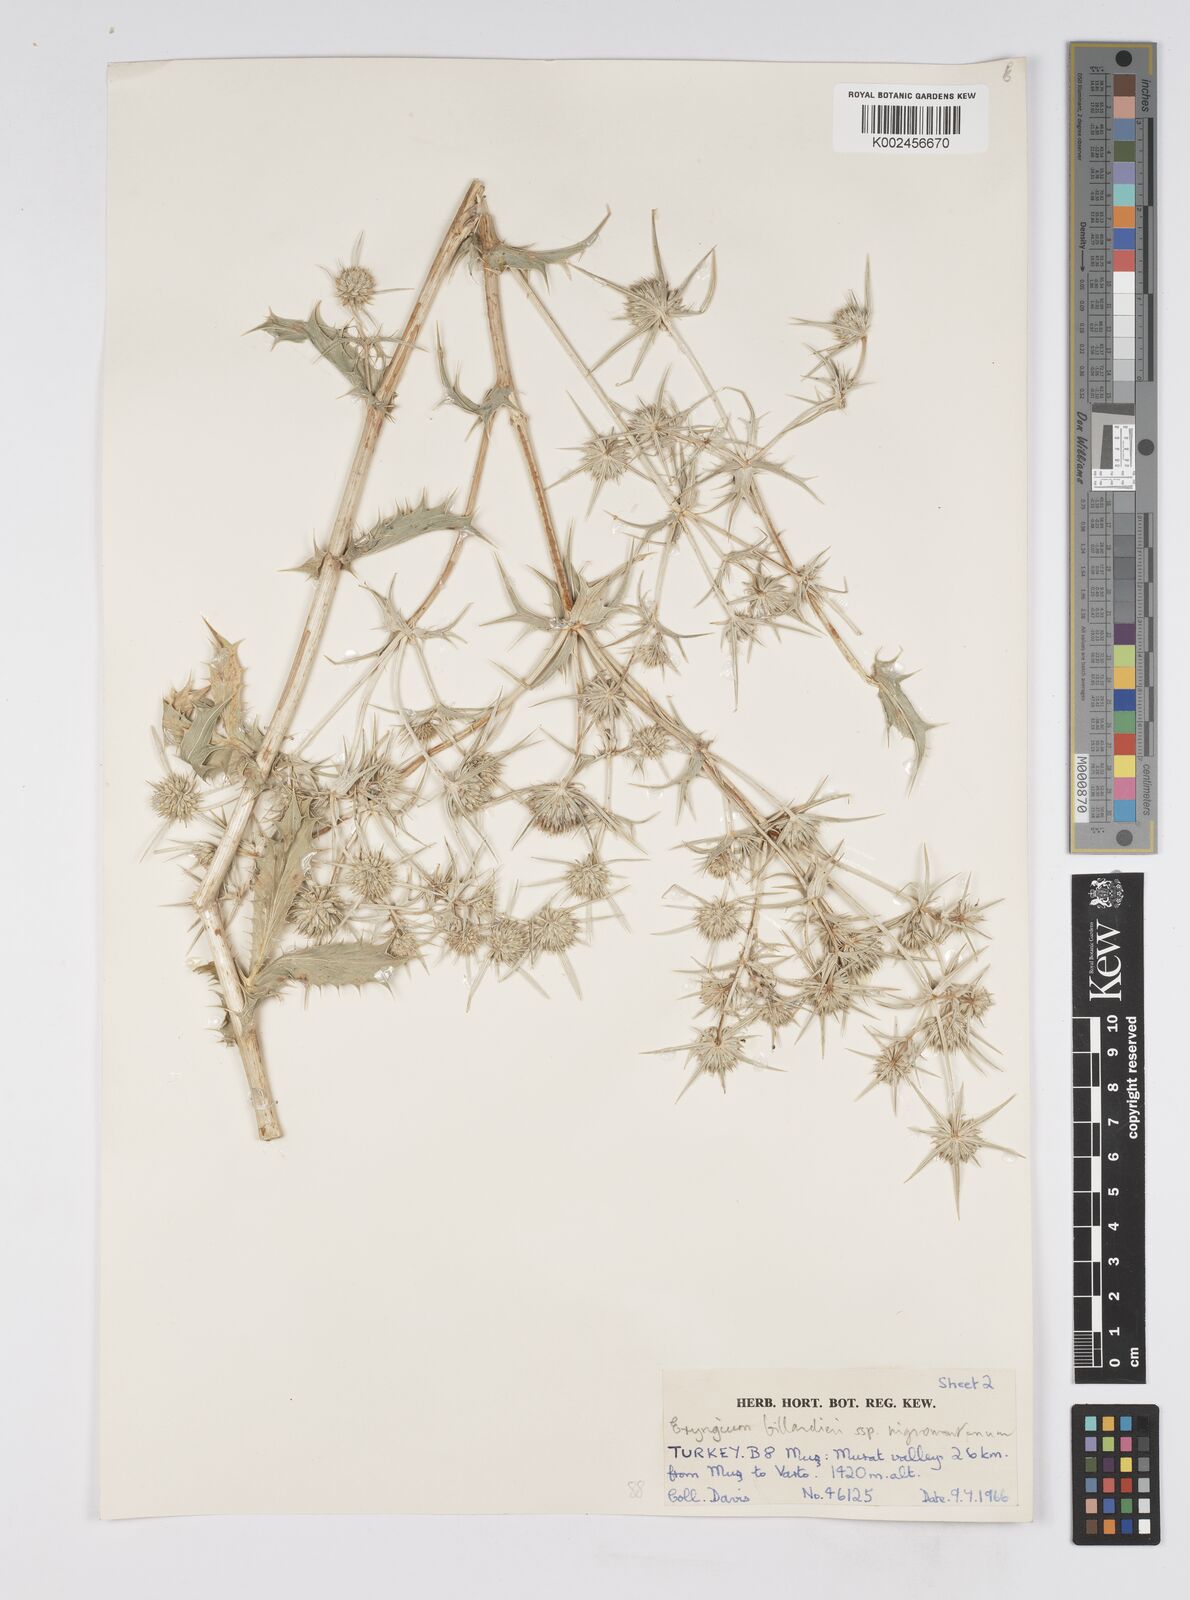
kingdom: Plantae
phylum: Tracheophyta
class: Magnoliopsida
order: Apiales
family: Apiaceae
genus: Eryngium
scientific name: Eryngium billardierei
